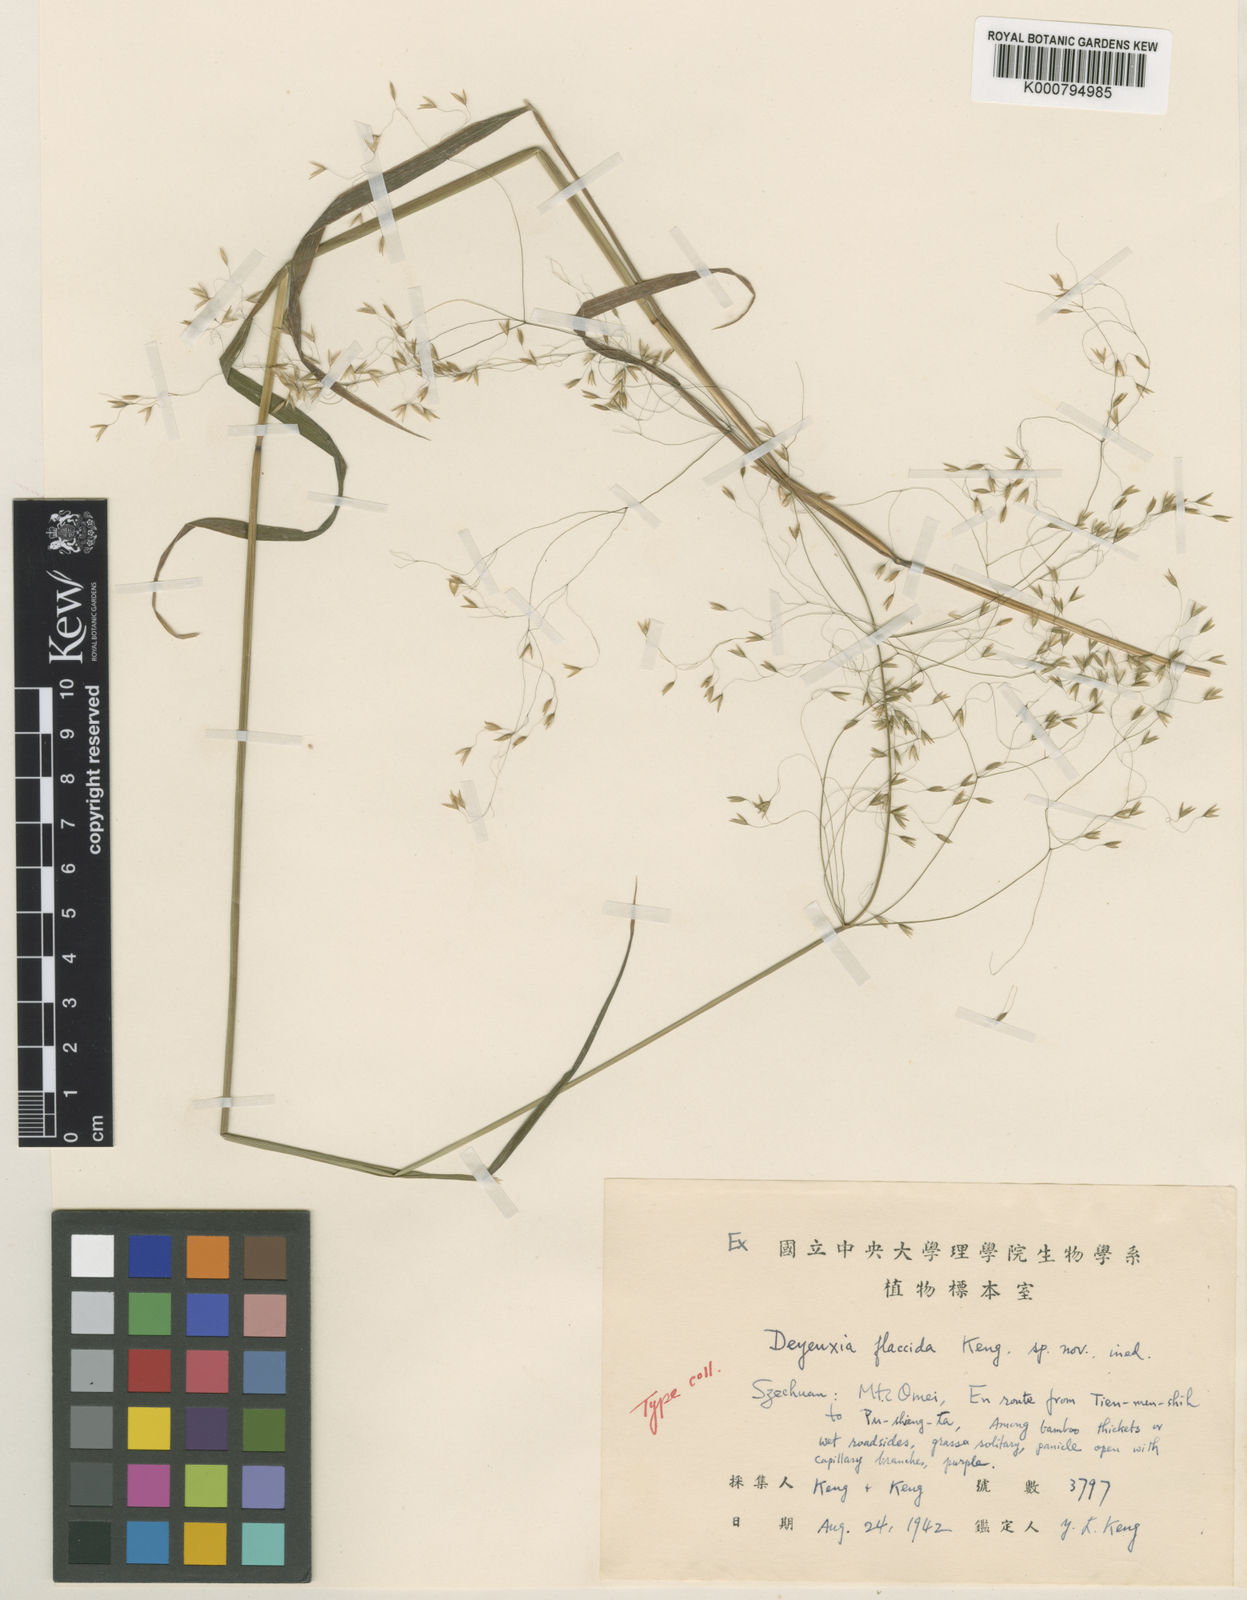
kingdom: Plantae
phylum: Tracheophyta
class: Liliopsida
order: Poales
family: Poaceae
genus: Calamagrostis
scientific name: Calamagrostis flaccida
